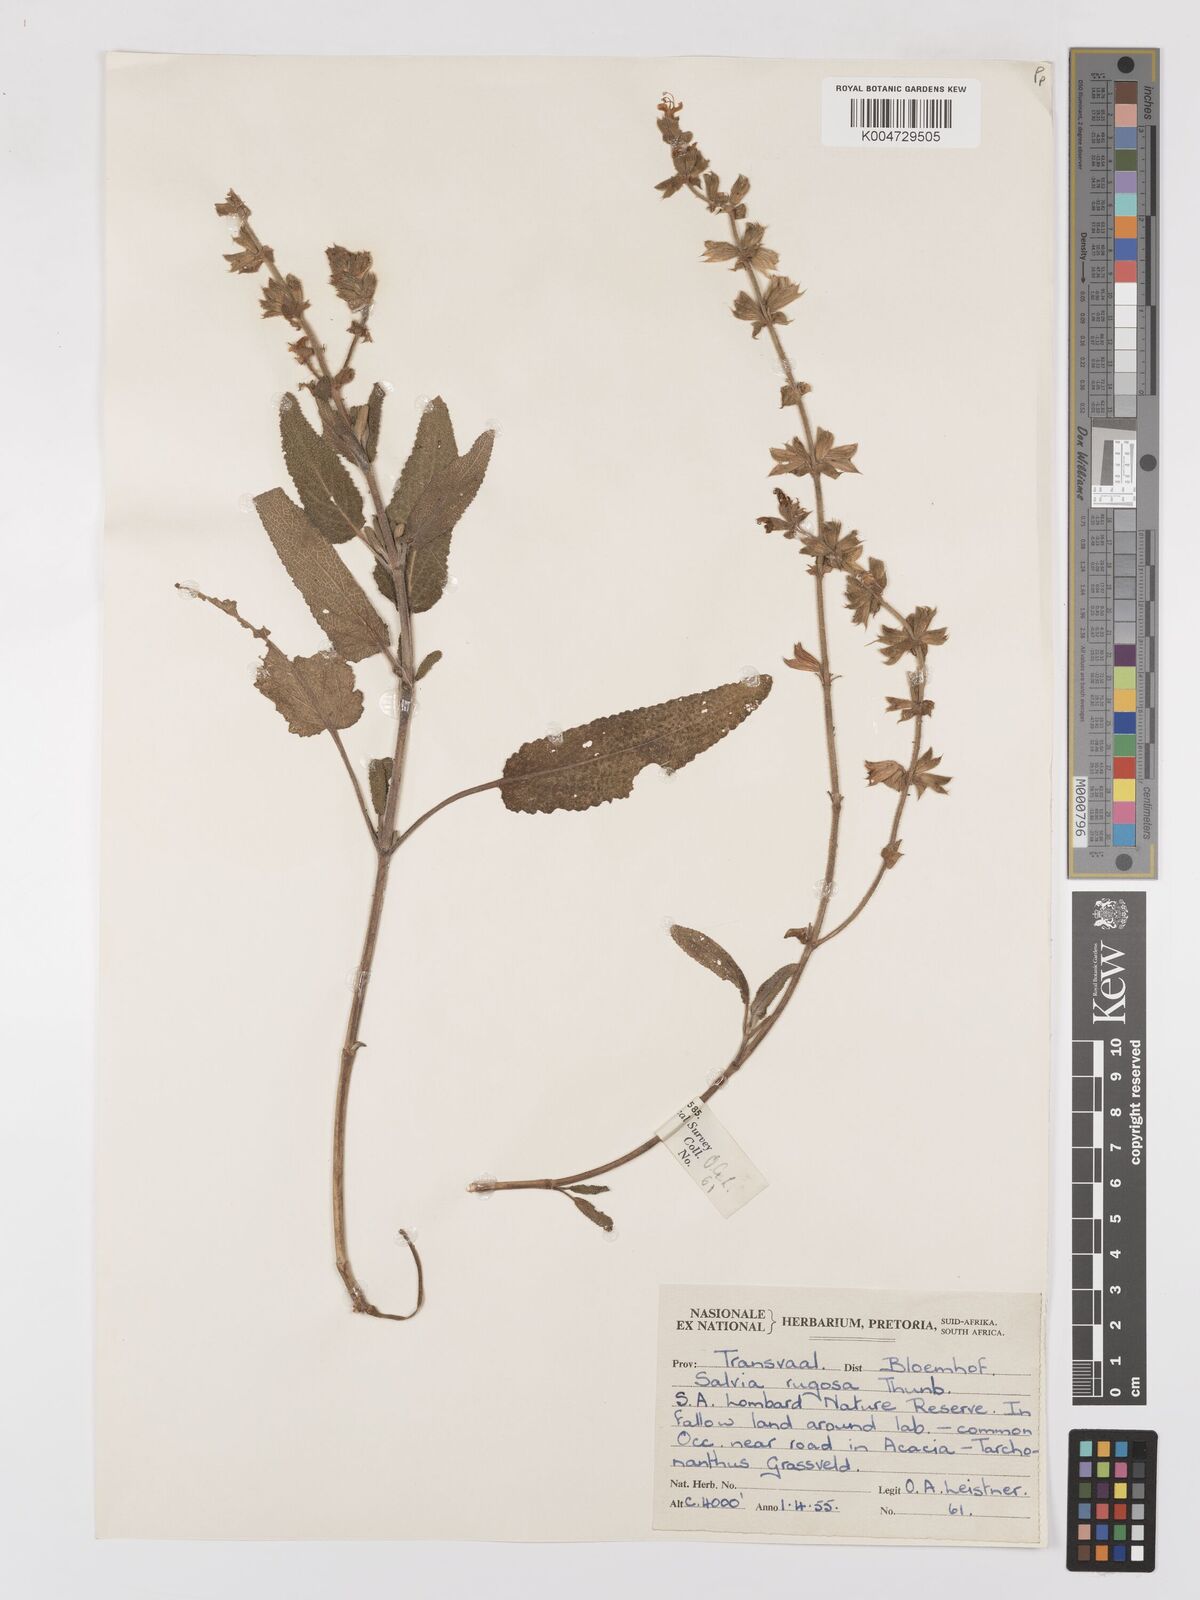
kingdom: Plantae
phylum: Tracheophyta
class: Magnoliopsida
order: Lamiales
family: Lamiaceae
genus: Salvia
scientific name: Salvia
